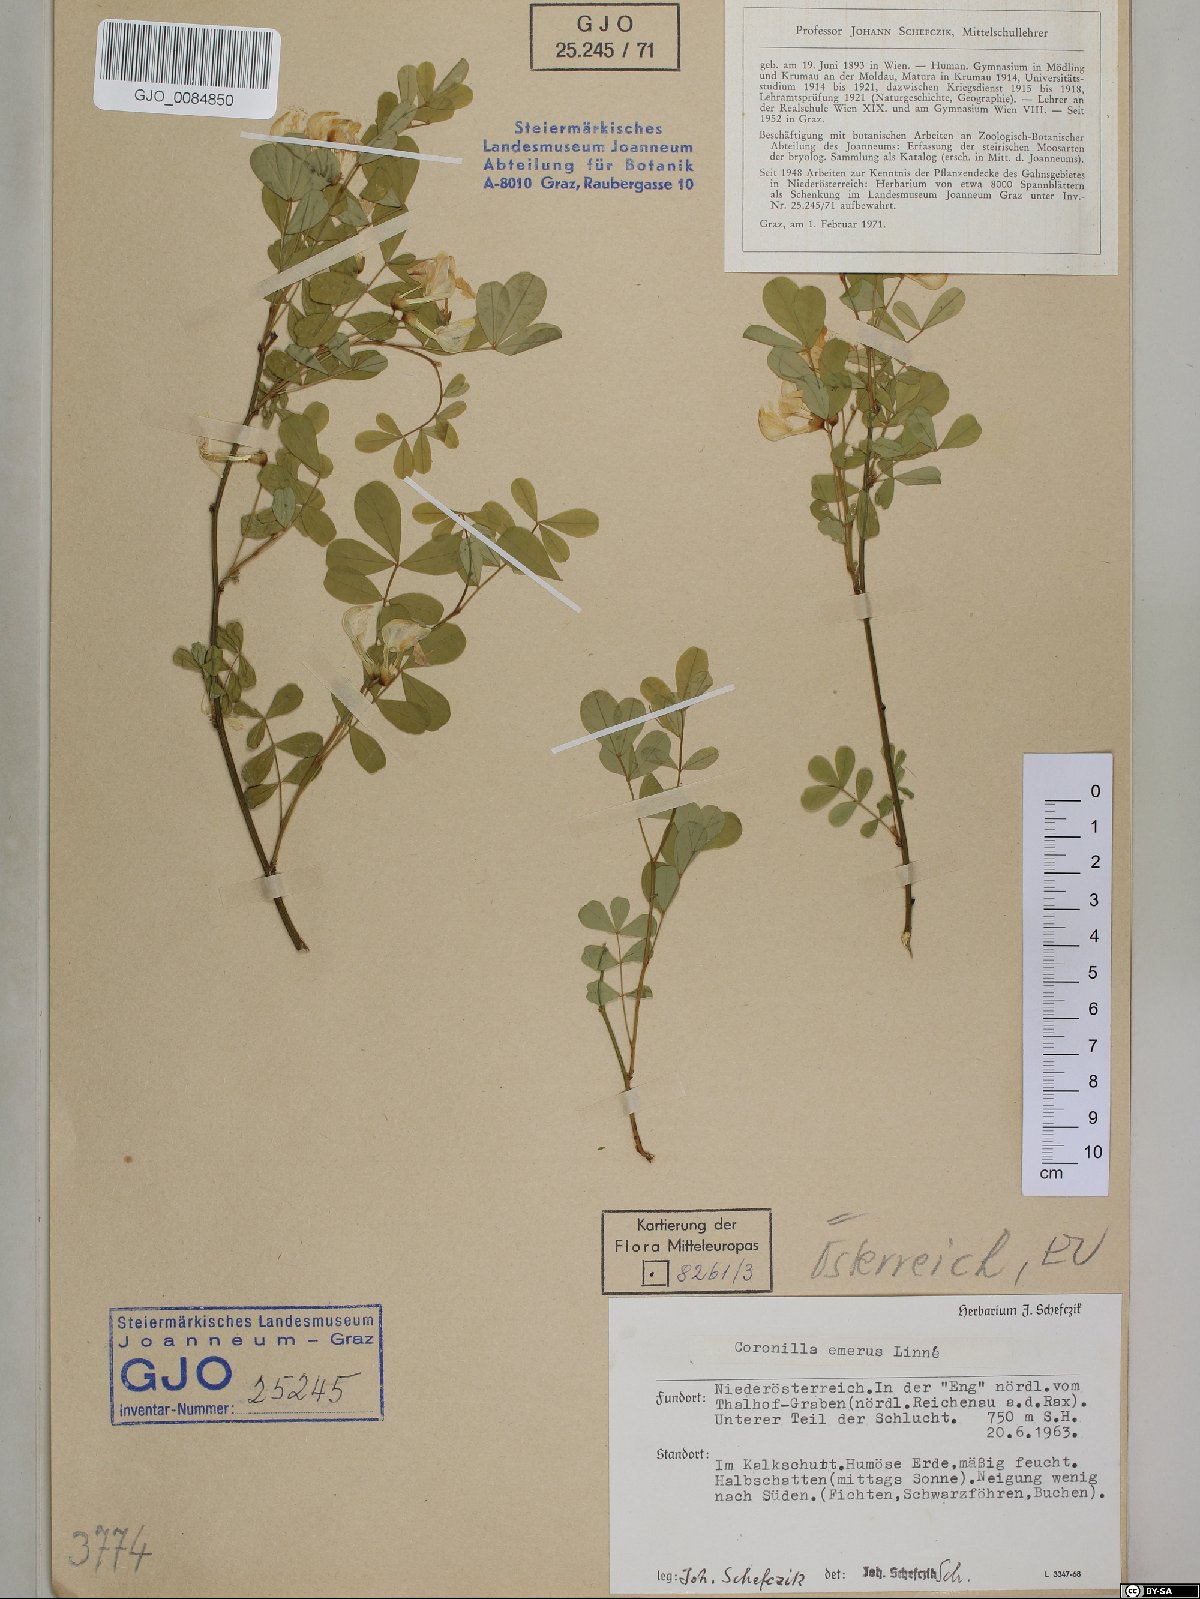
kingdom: Plantae
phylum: Tracheophyta
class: Magnoliopsida
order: Fabales
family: Fabaceae
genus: Hippocrepis
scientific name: Hippocrepis emerus
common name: Scorpion senna
